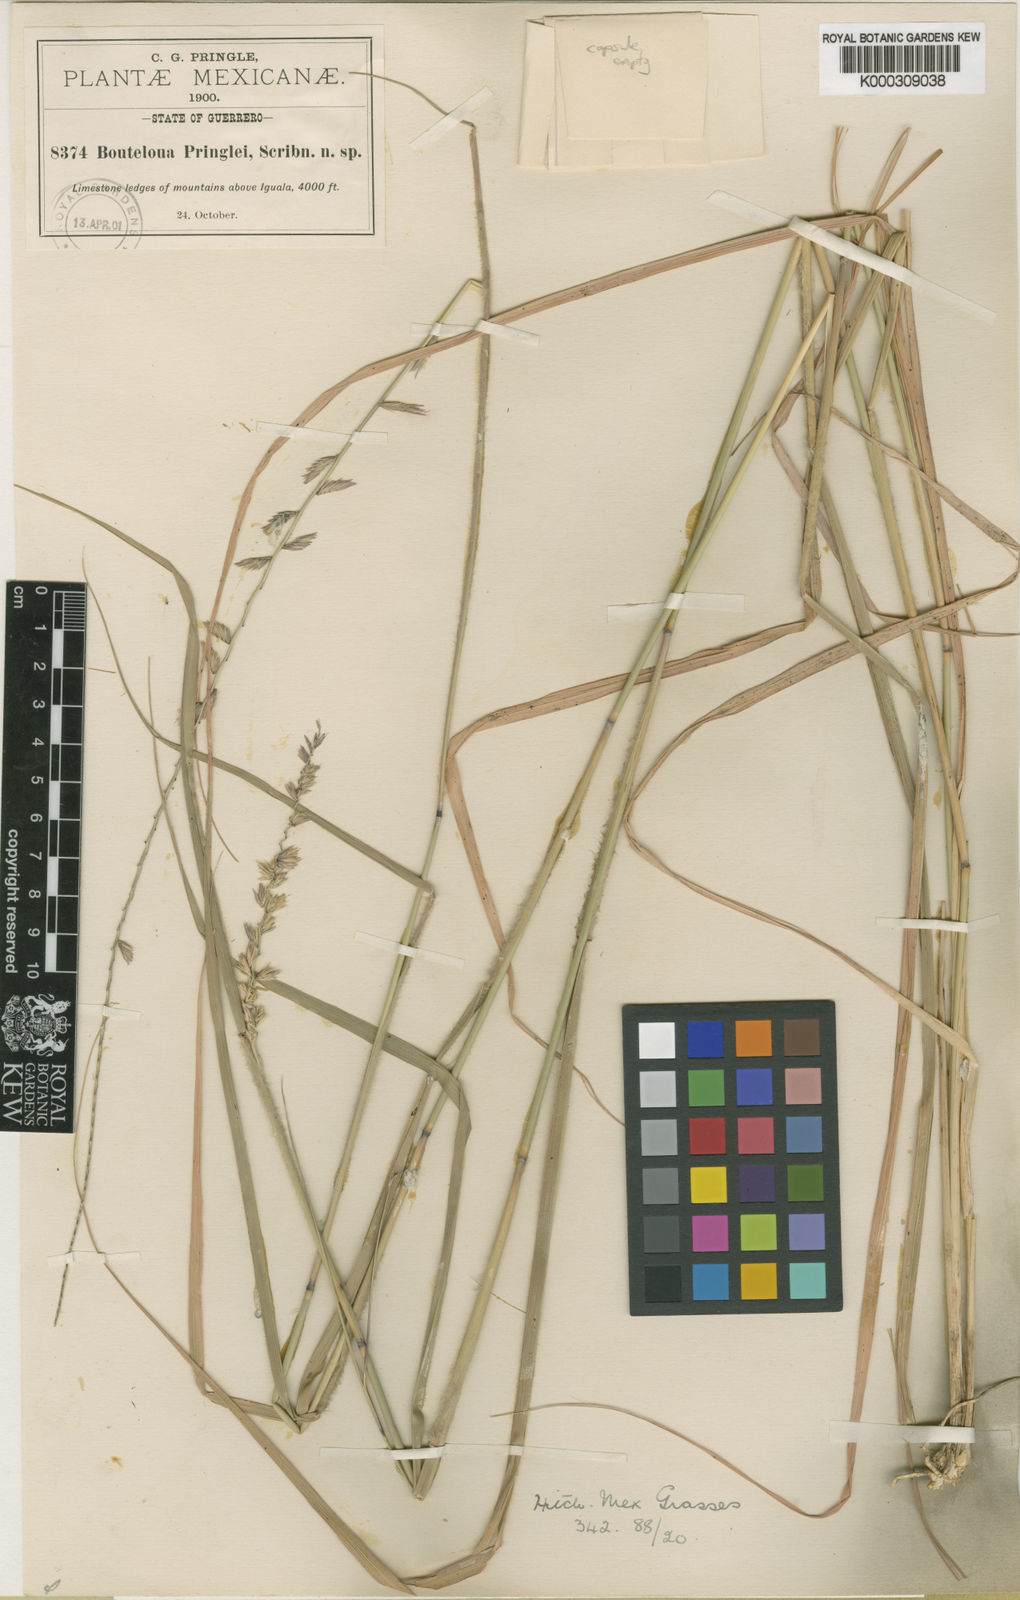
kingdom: Plantae
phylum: Tracheophyta
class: Liliopsida
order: Poales
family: Poaceae
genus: Bouteloua
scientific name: Bouteloua media
